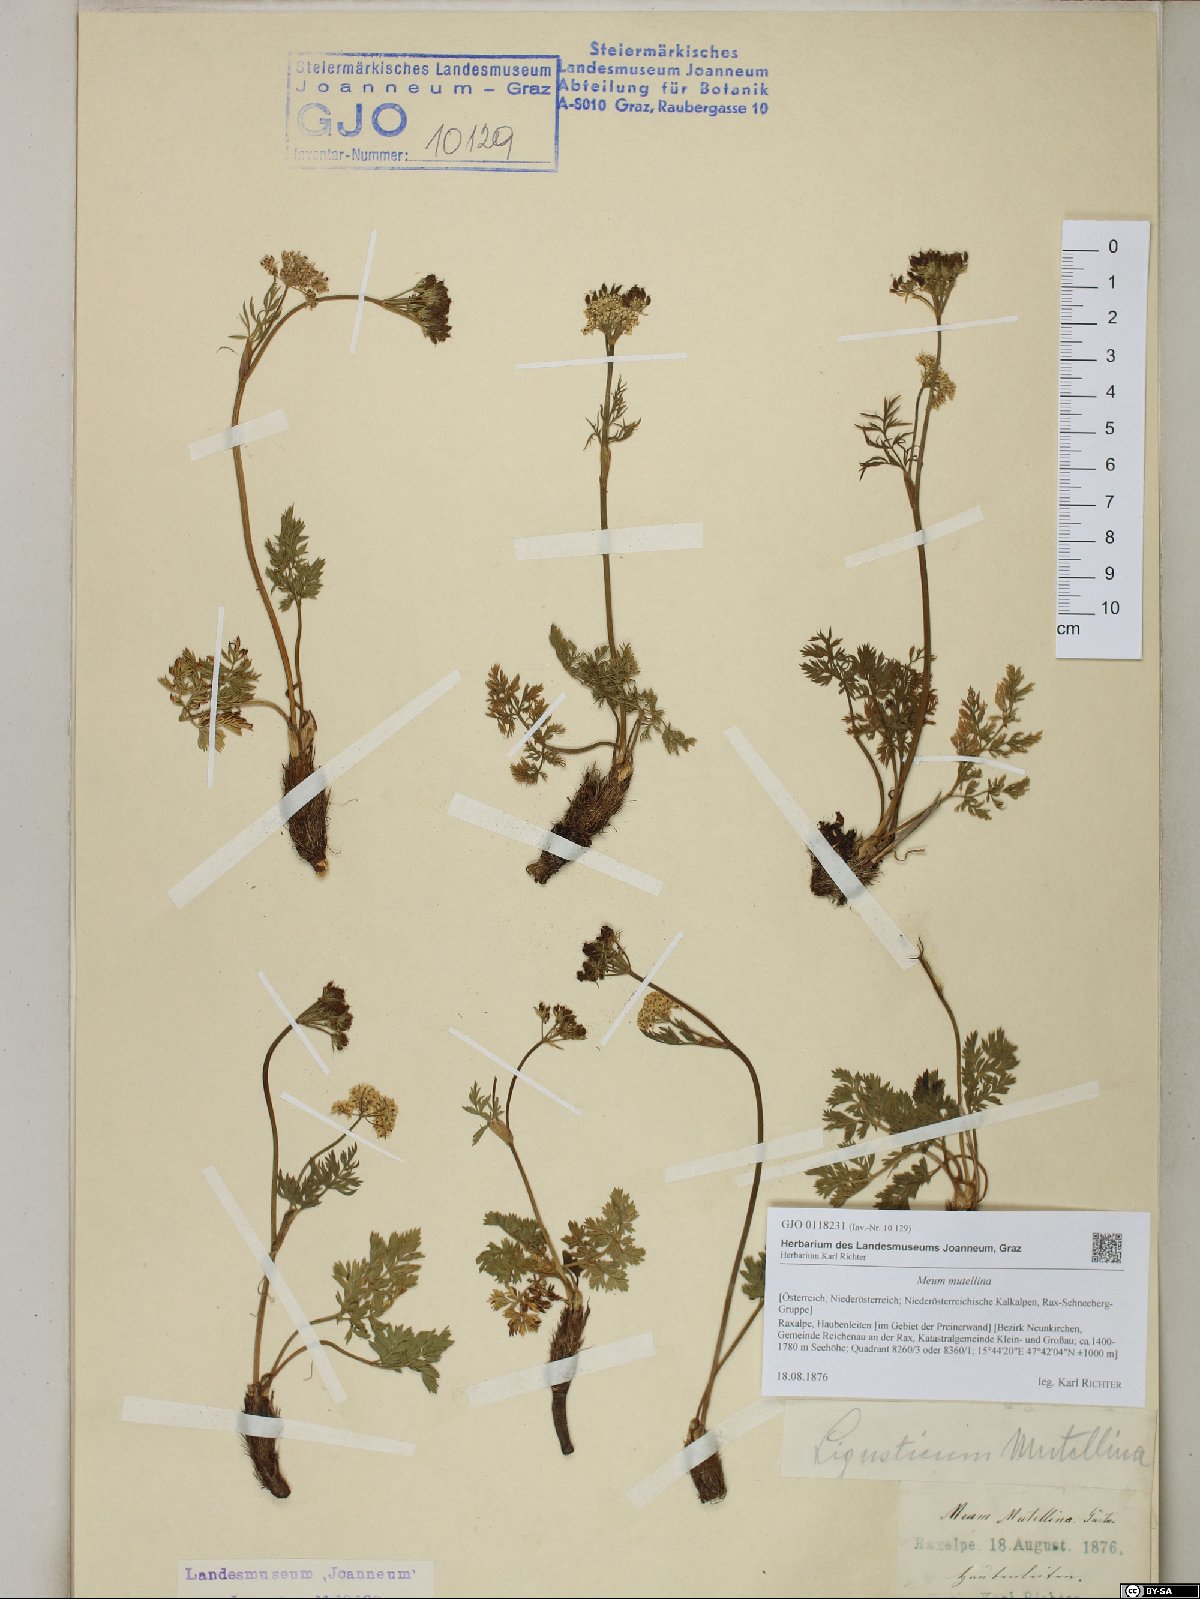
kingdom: Plantae
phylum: Tracheophyta
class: Magnoliopsida
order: Apiales
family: Apiaceae
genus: Mutellina
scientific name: Mutellina adonidifolia
